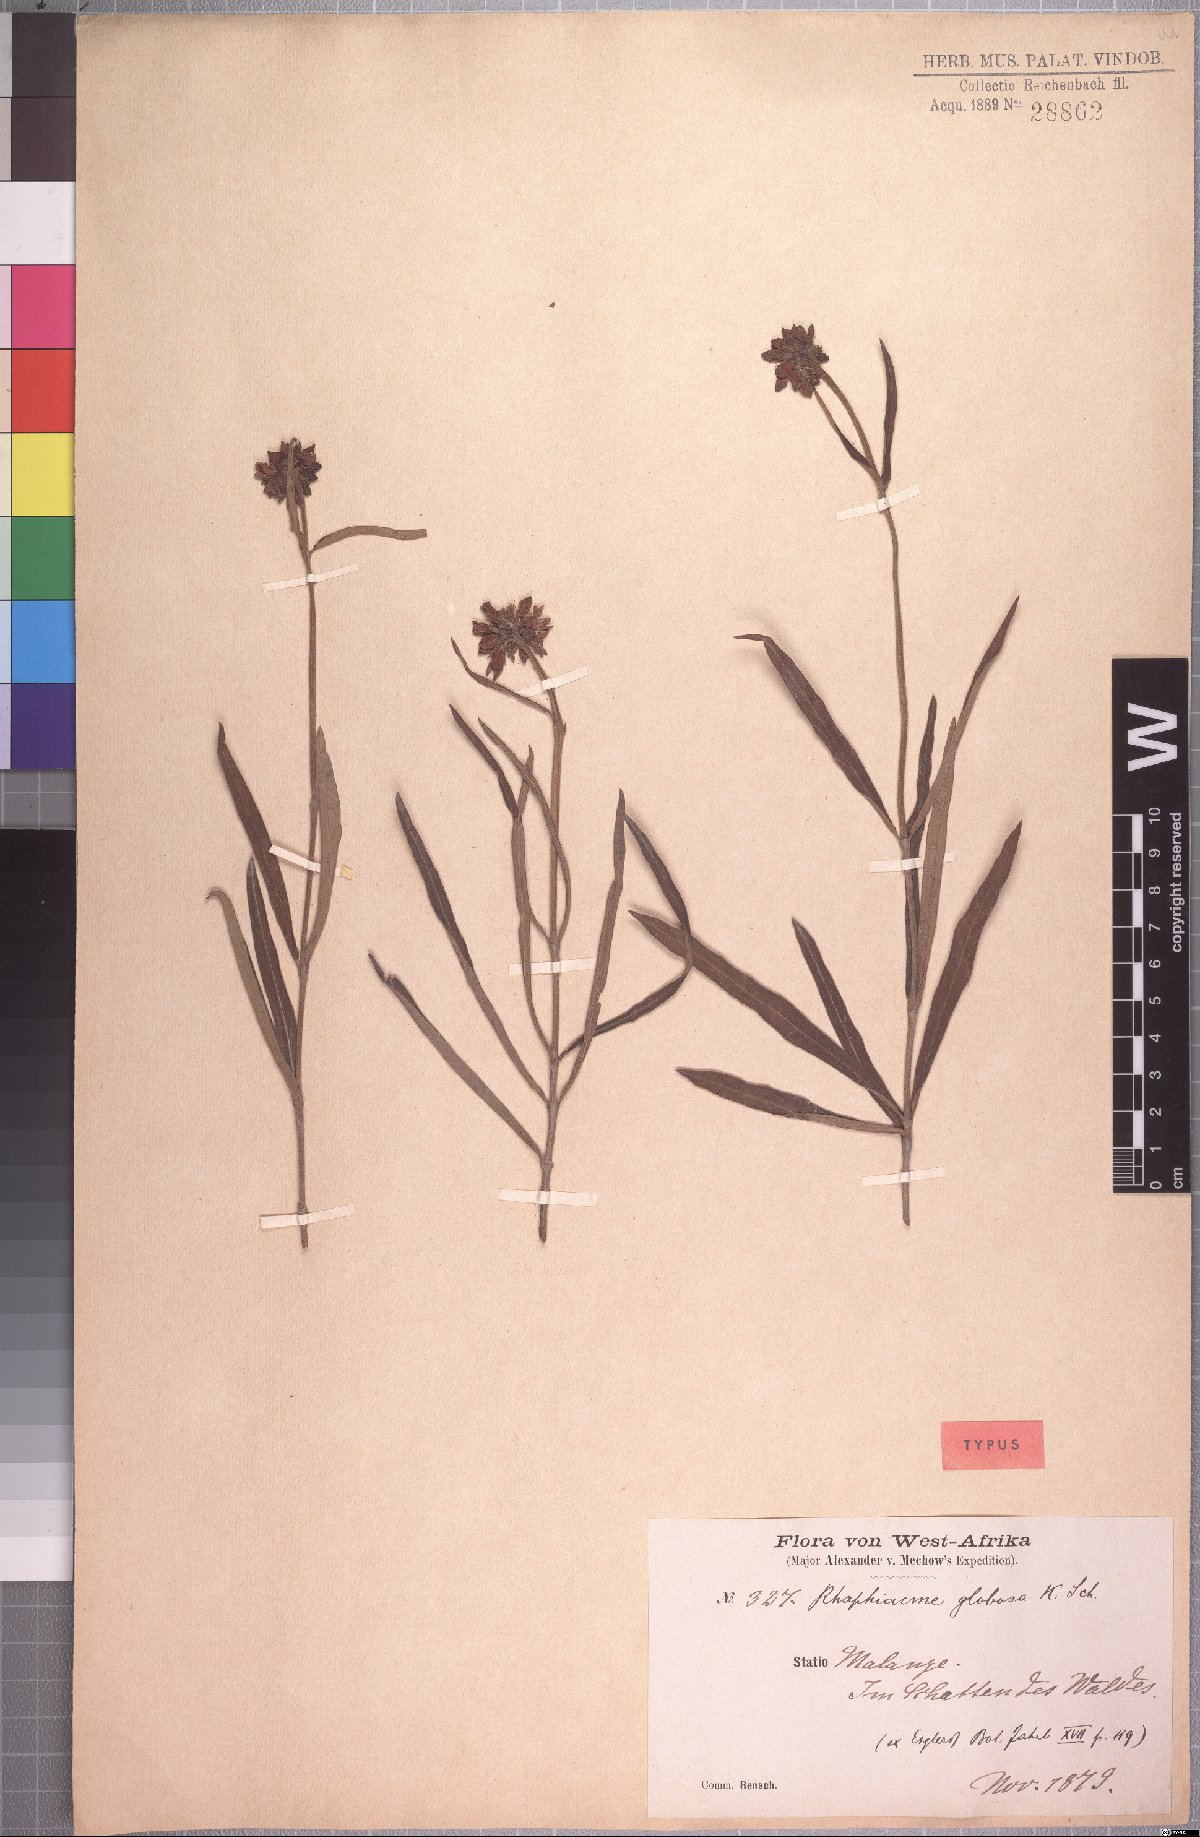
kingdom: Plantae
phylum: Tracheophyta
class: Magnoliopsida
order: Gentianales
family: Apocynaceae
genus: Raphionacme
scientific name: Raphionacme globosa
